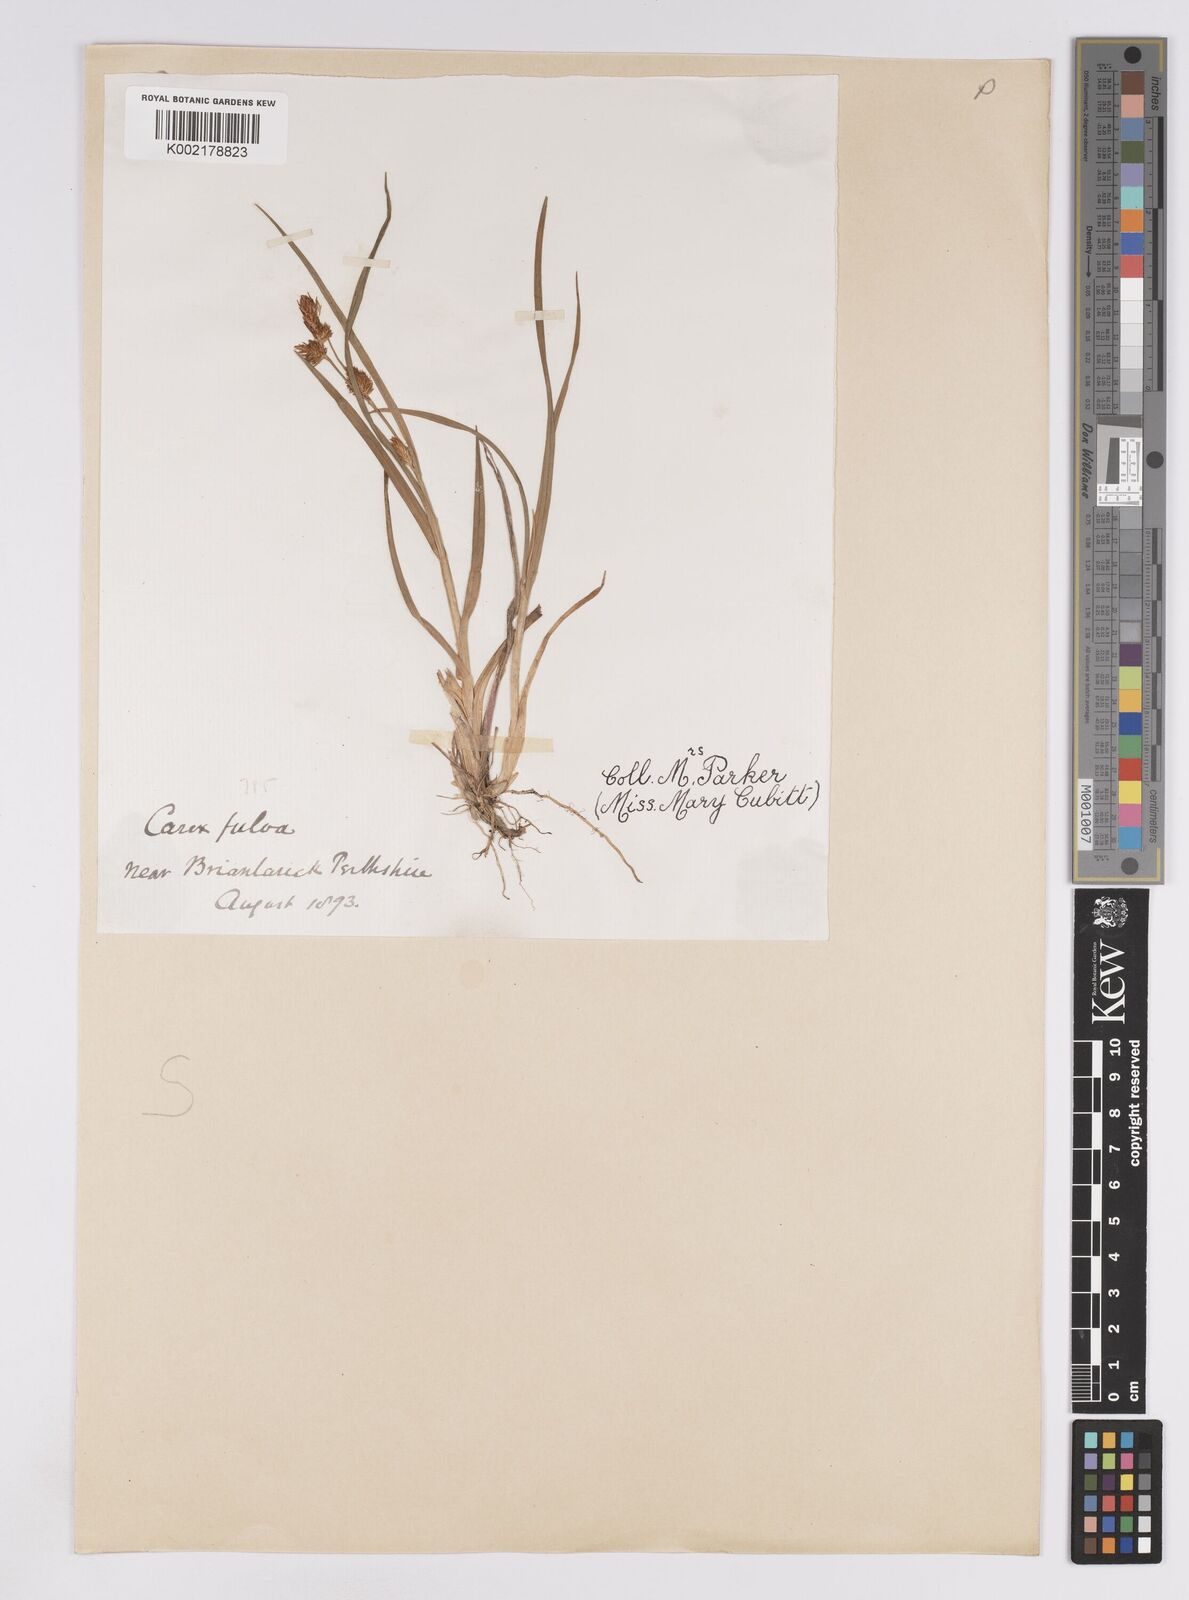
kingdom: Plantae
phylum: Tracheophyta
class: Liliopsida
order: Poales
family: Cyperaceae
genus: Carex
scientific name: Carex lepidocarpa
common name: Long-stalked yellow-sedge
